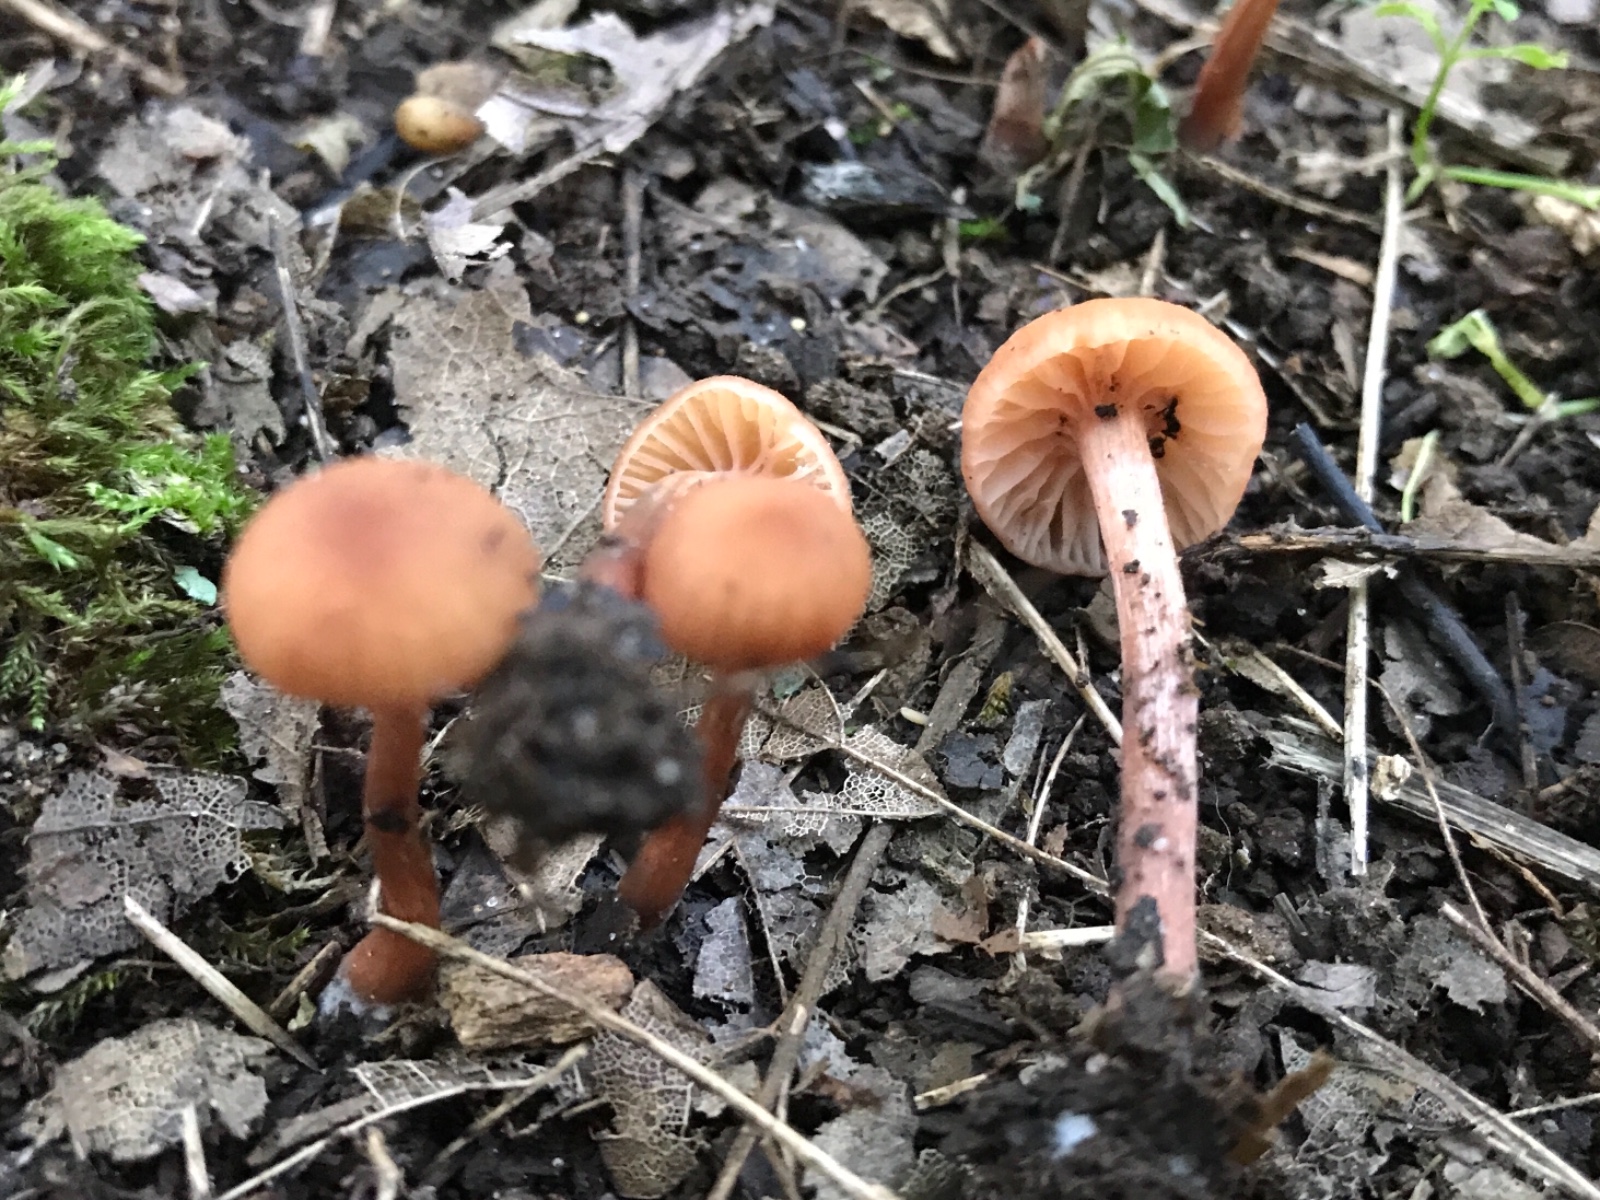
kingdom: Fungi
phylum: Basidiomycota
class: Agaricomycetes
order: Agaricales
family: Hydnangiaceae
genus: Laccaria
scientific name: Laccaria laccata
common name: rød ametysthat
